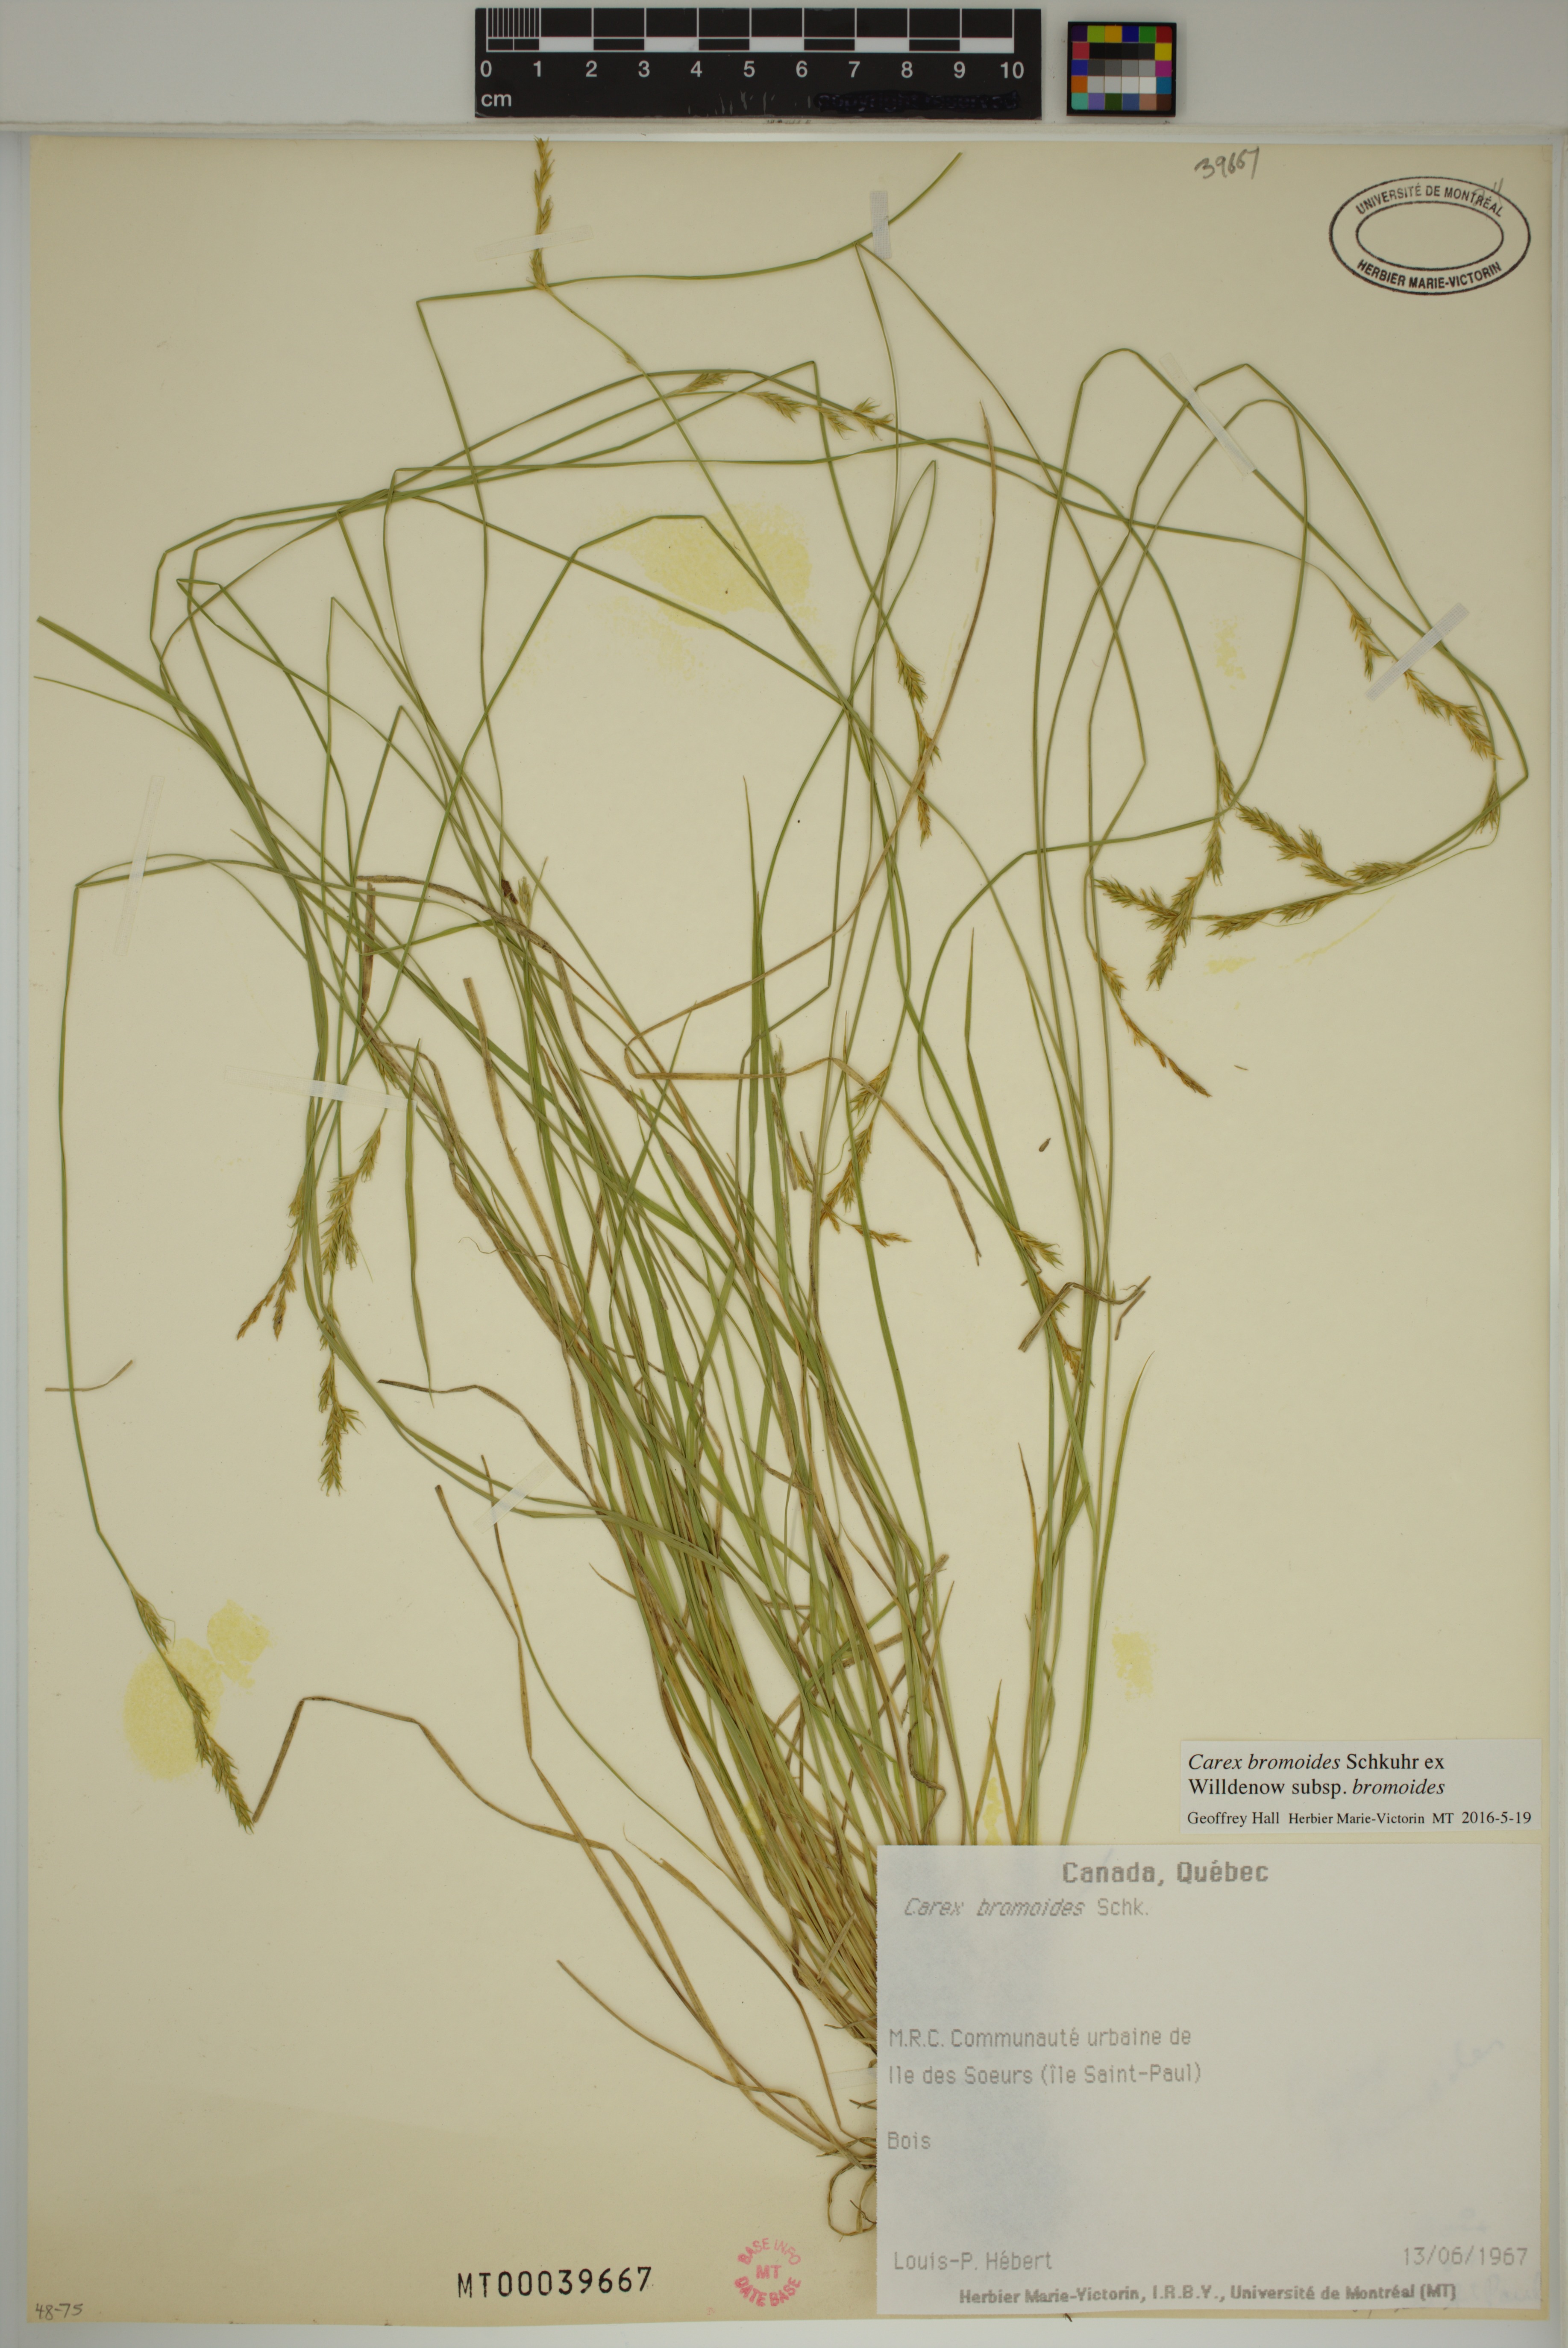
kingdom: Plantae
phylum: Tracheophyta
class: Liliopsida
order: Poales
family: Cyperaceae
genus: Carex
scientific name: Carex bromoides
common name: Brome hummock sedge
